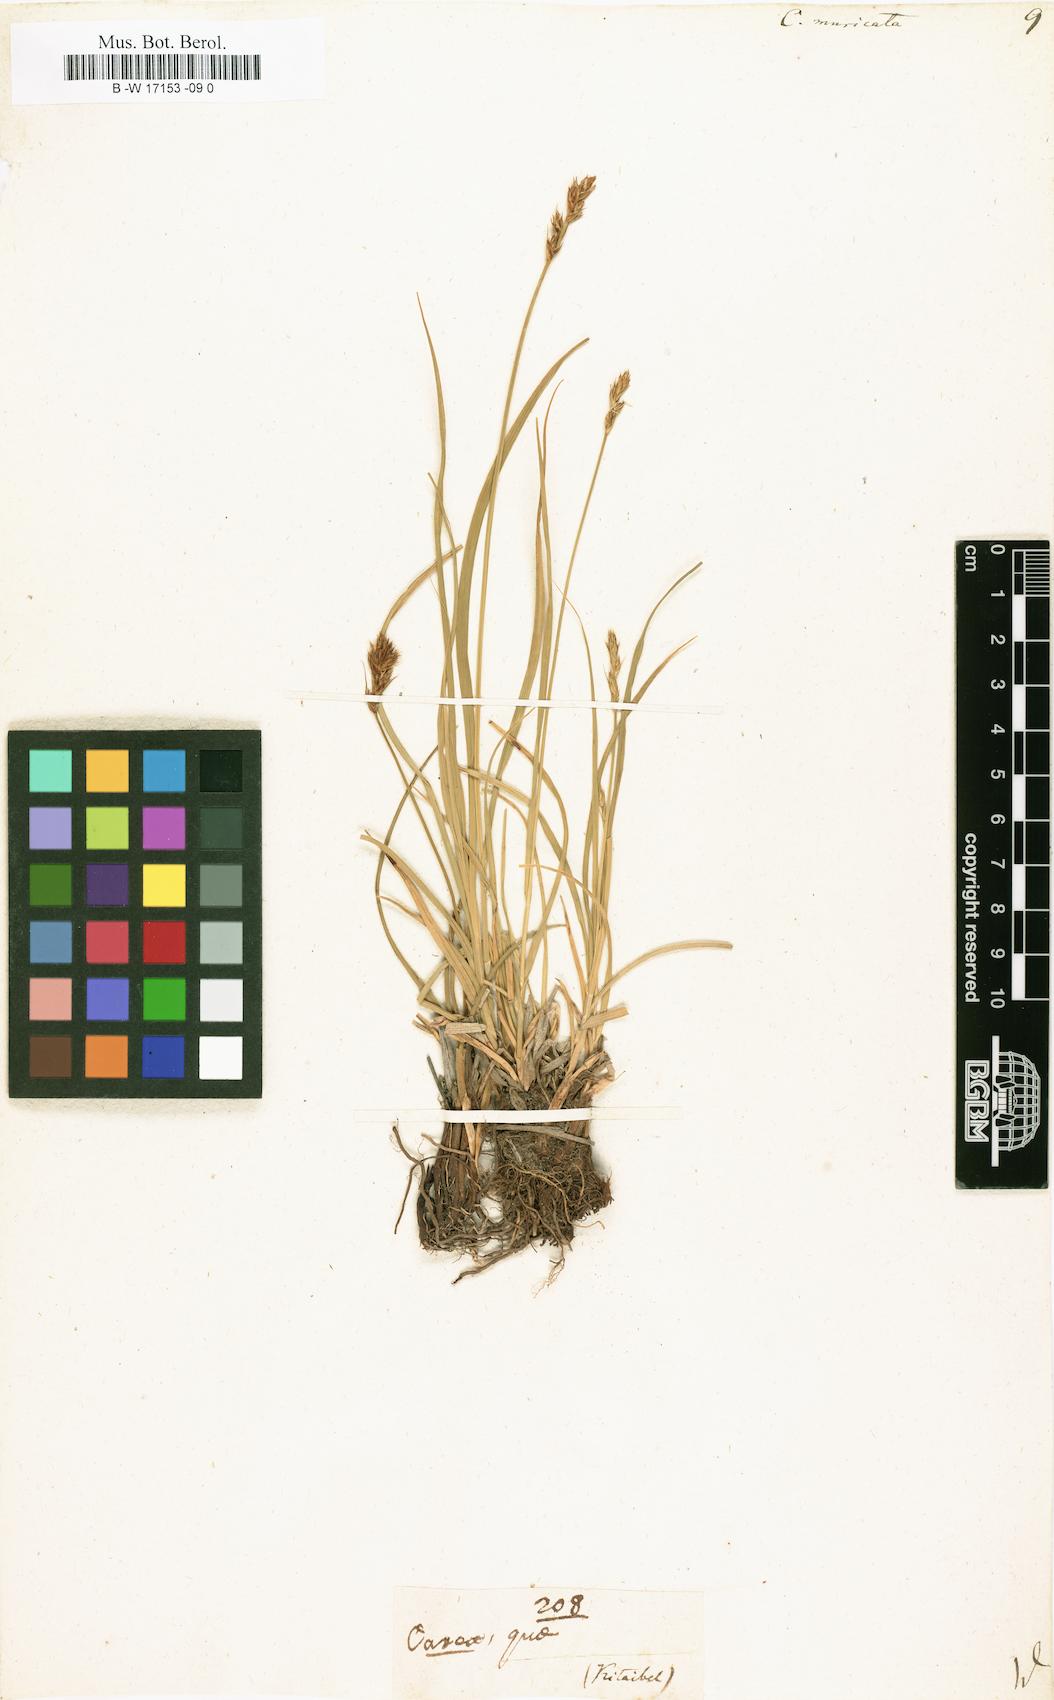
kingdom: Plantae
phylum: Tracheophyta
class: Liliopsida
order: Poales
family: Cyperaceae
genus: Carex
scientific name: Carex muricata
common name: Rough sedge
